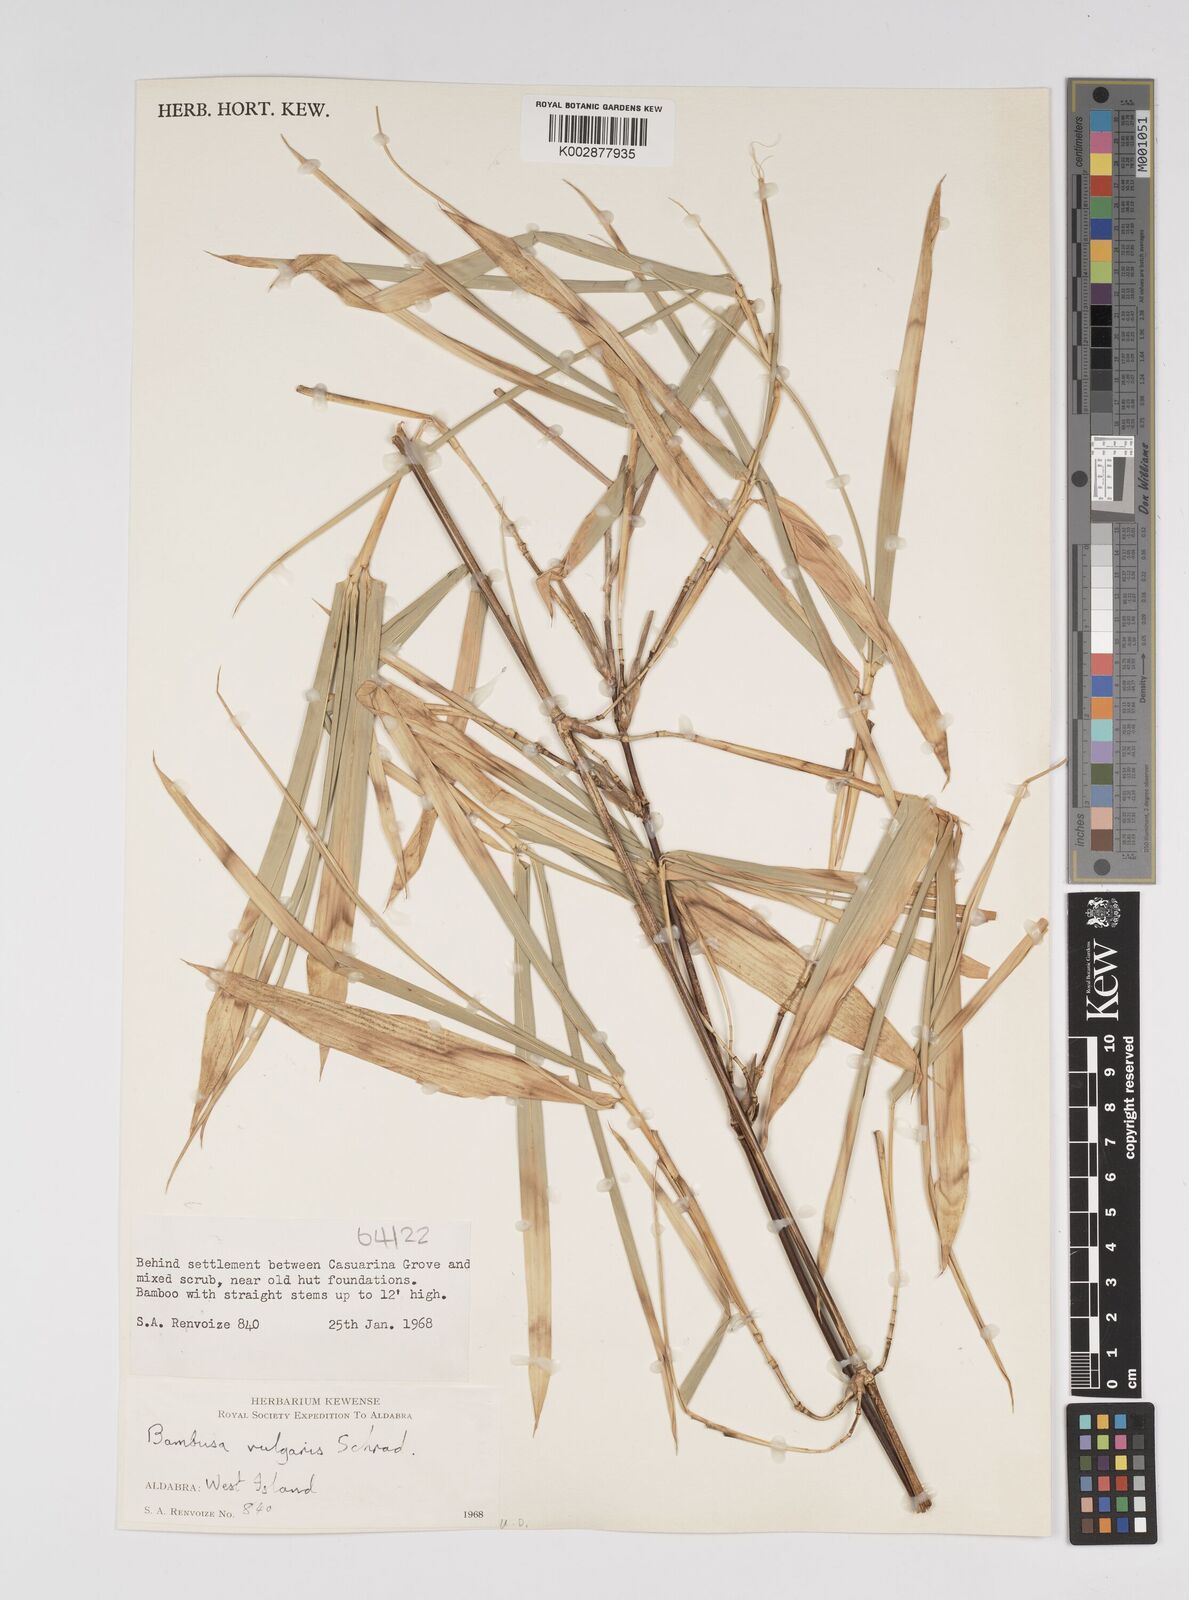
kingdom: Plantae
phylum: Tracheophyta
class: Liliopsida
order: Poales
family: Poaceae
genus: Bambusa
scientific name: Bambusa vulgaris
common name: Common bamboo
